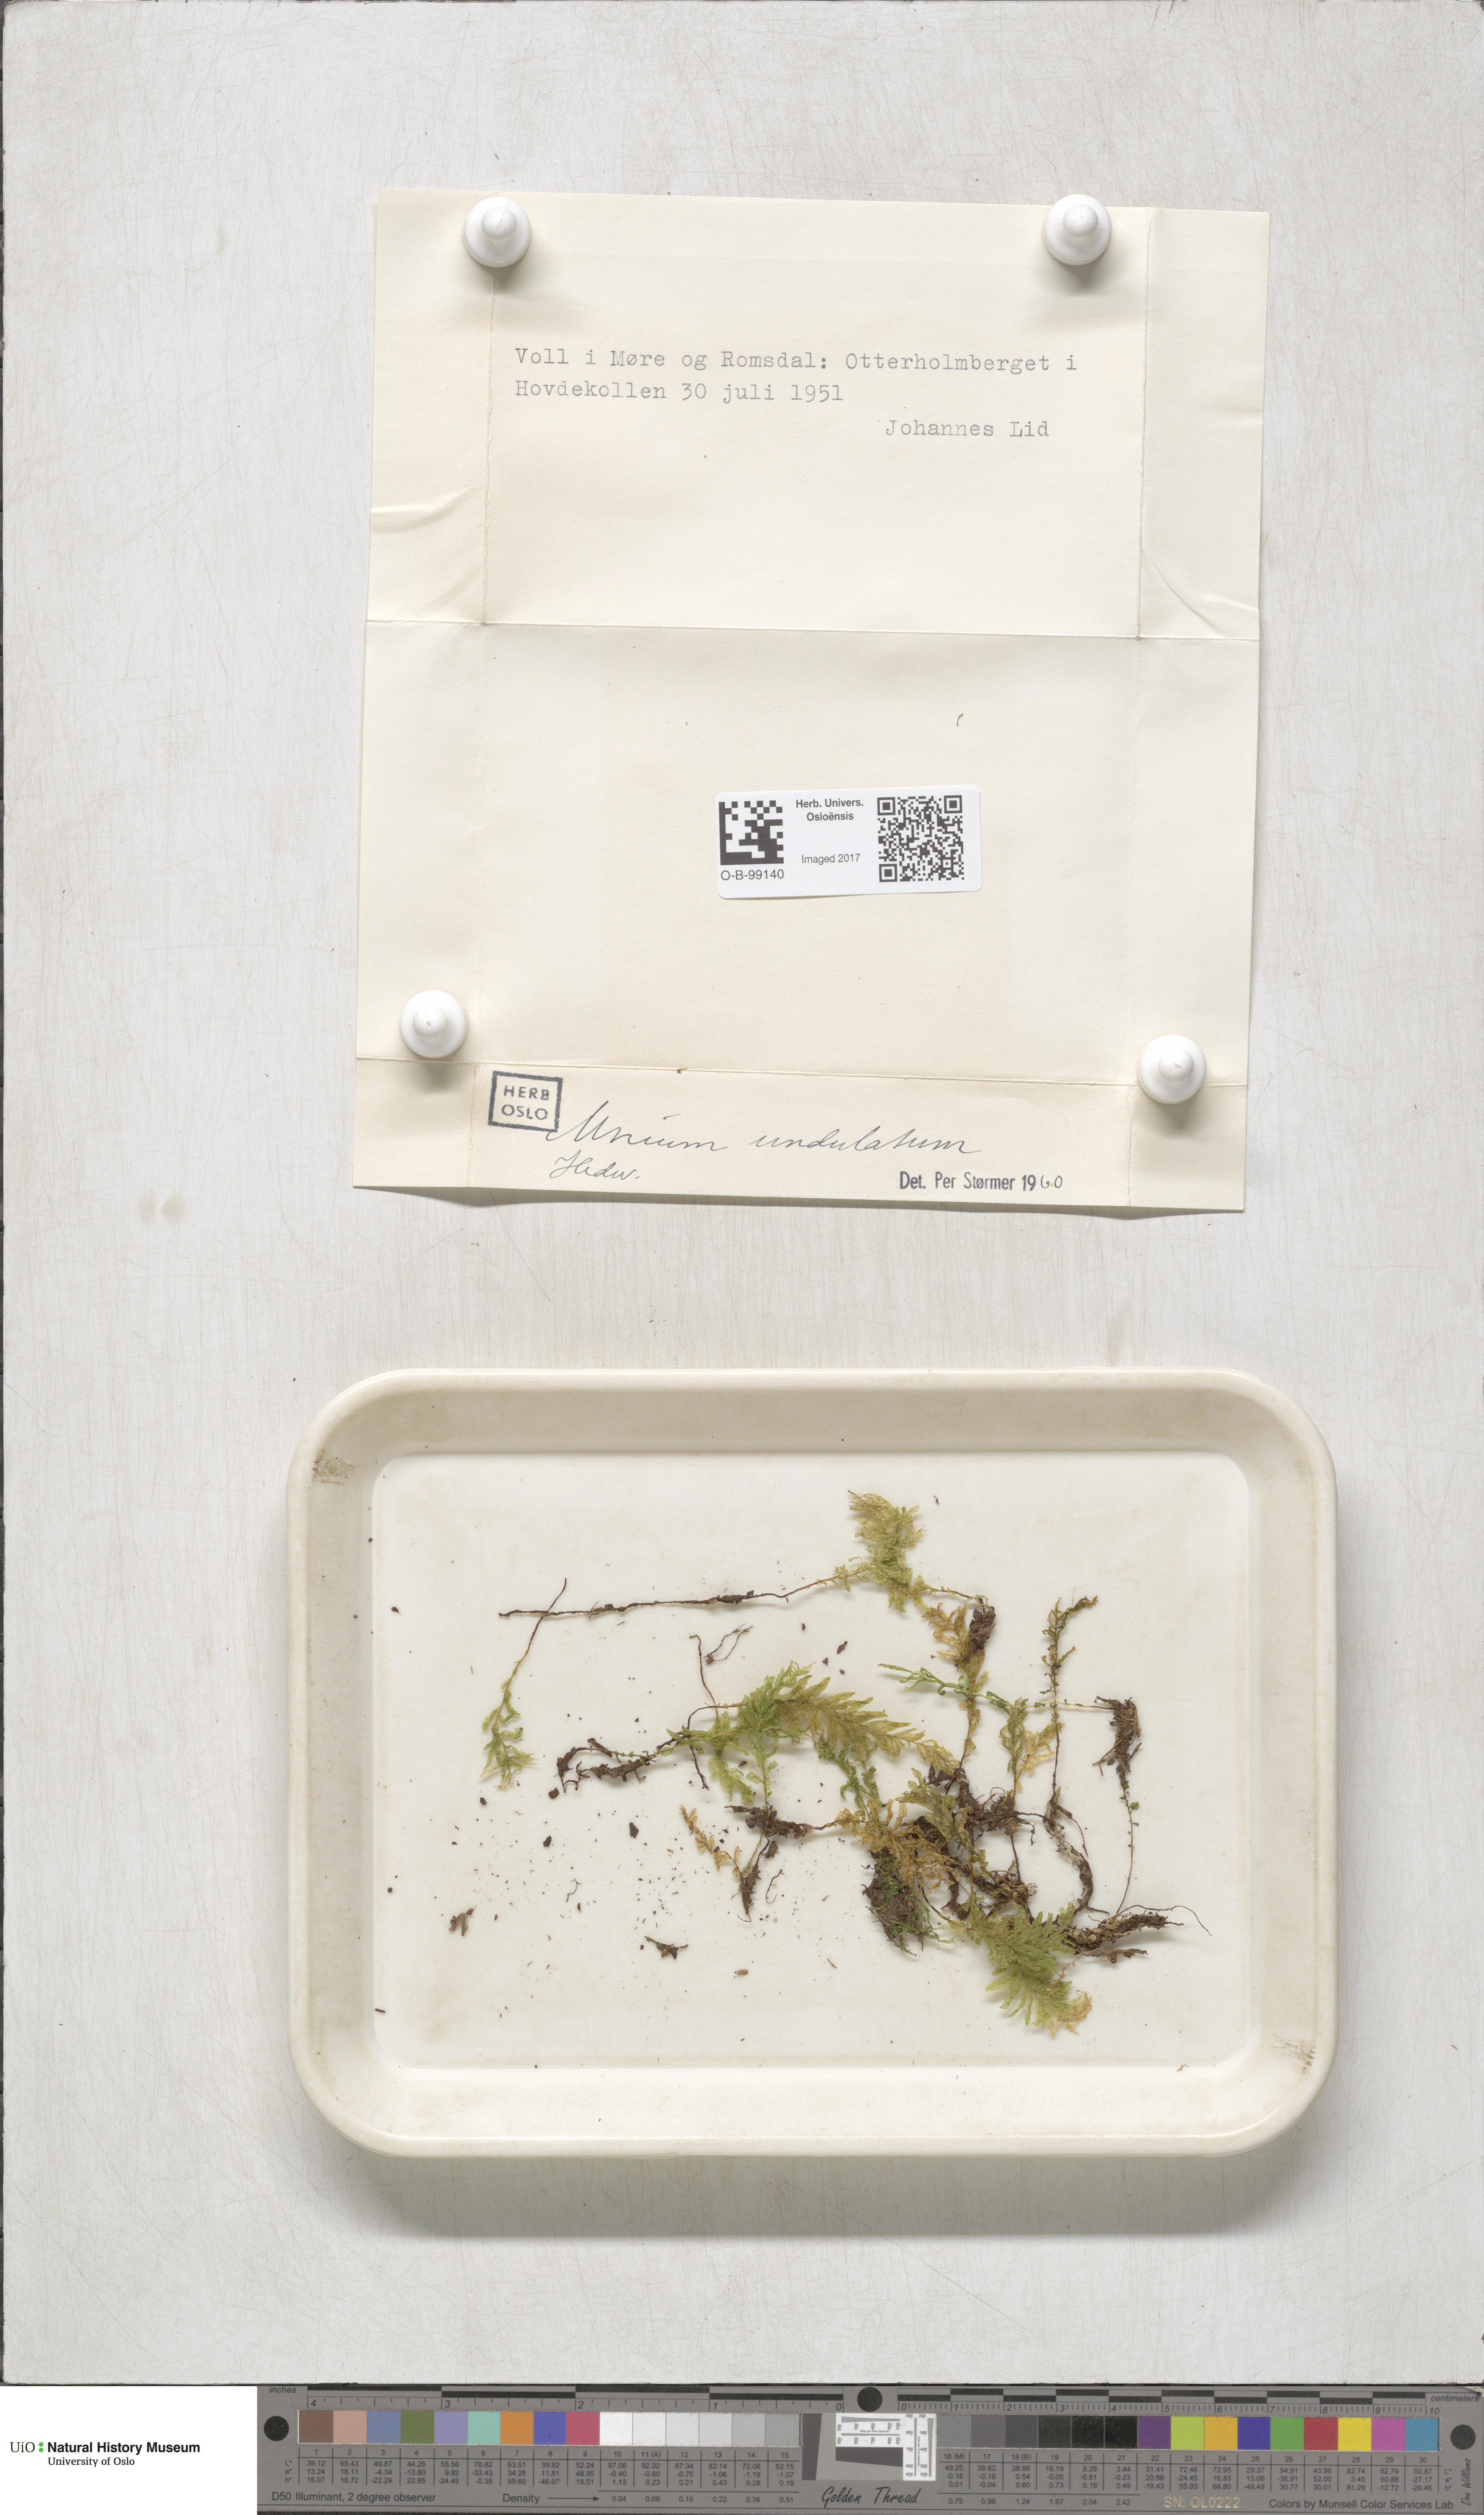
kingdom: Plantae
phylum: Bryophyta
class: Bryopsida
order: Bryales
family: Mniaceae
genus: Plagiomnium
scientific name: Plagiomnium undulatum
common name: Hart's-tongue thyme-moss
